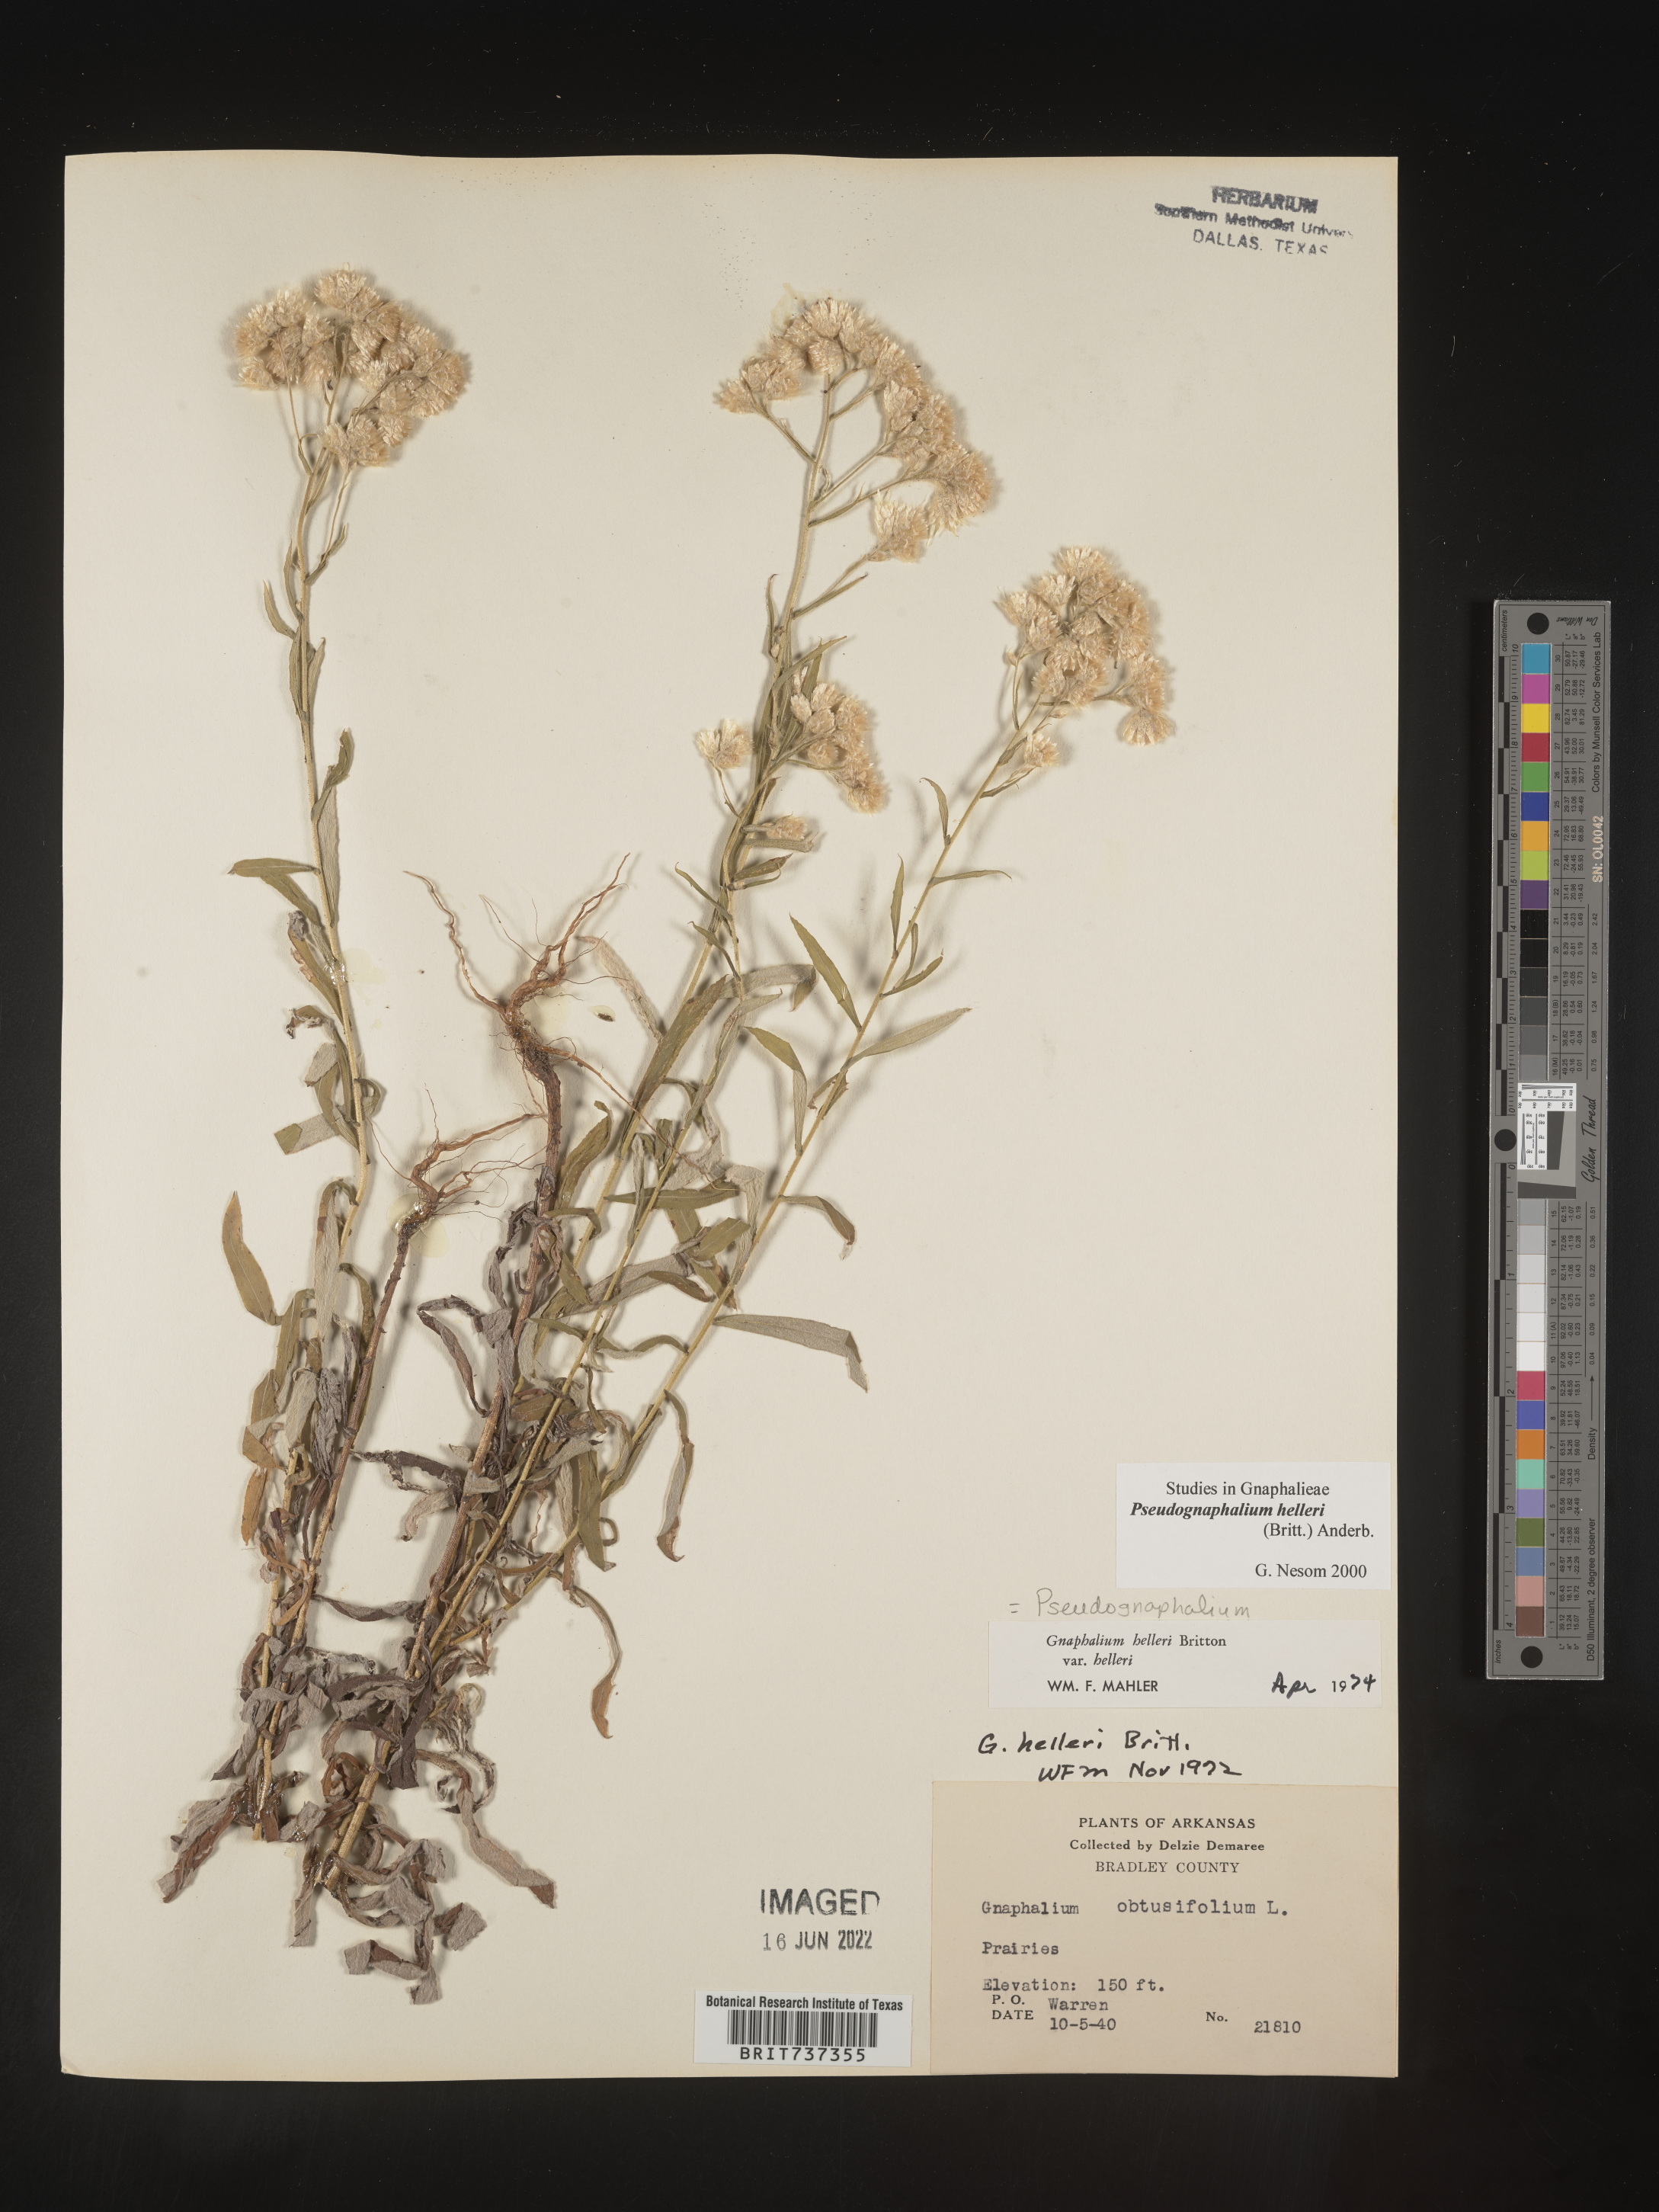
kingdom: Plantae
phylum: Tracheophyta
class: Magnoliopsida
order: Asterales
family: Asteraceae
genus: Pseudognaphalium
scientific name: Pseudognaphalium helleri
